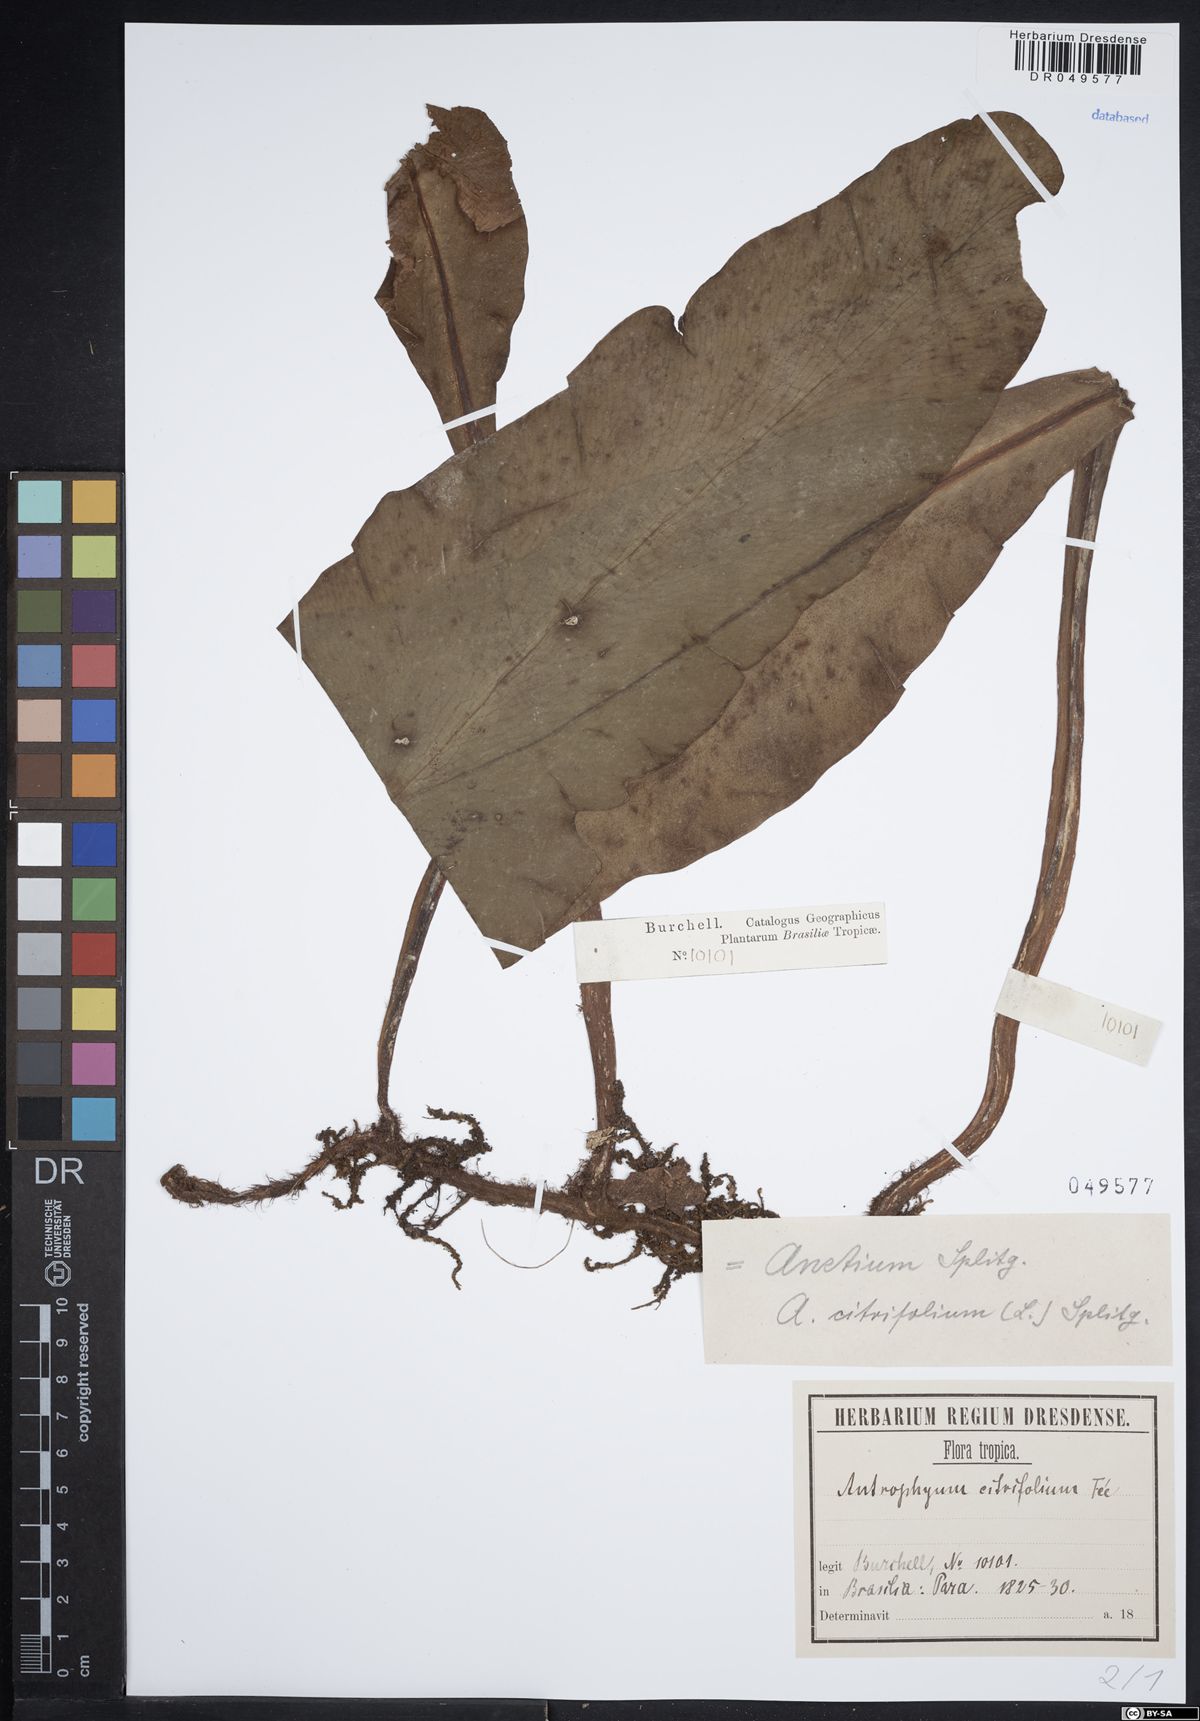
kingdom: Plantae
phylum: Tracheophyta
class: Polypodiopsida
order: Polypodiales
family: Pteridaceae
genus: Polytaenium
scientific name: Polytaenium citrifolium
